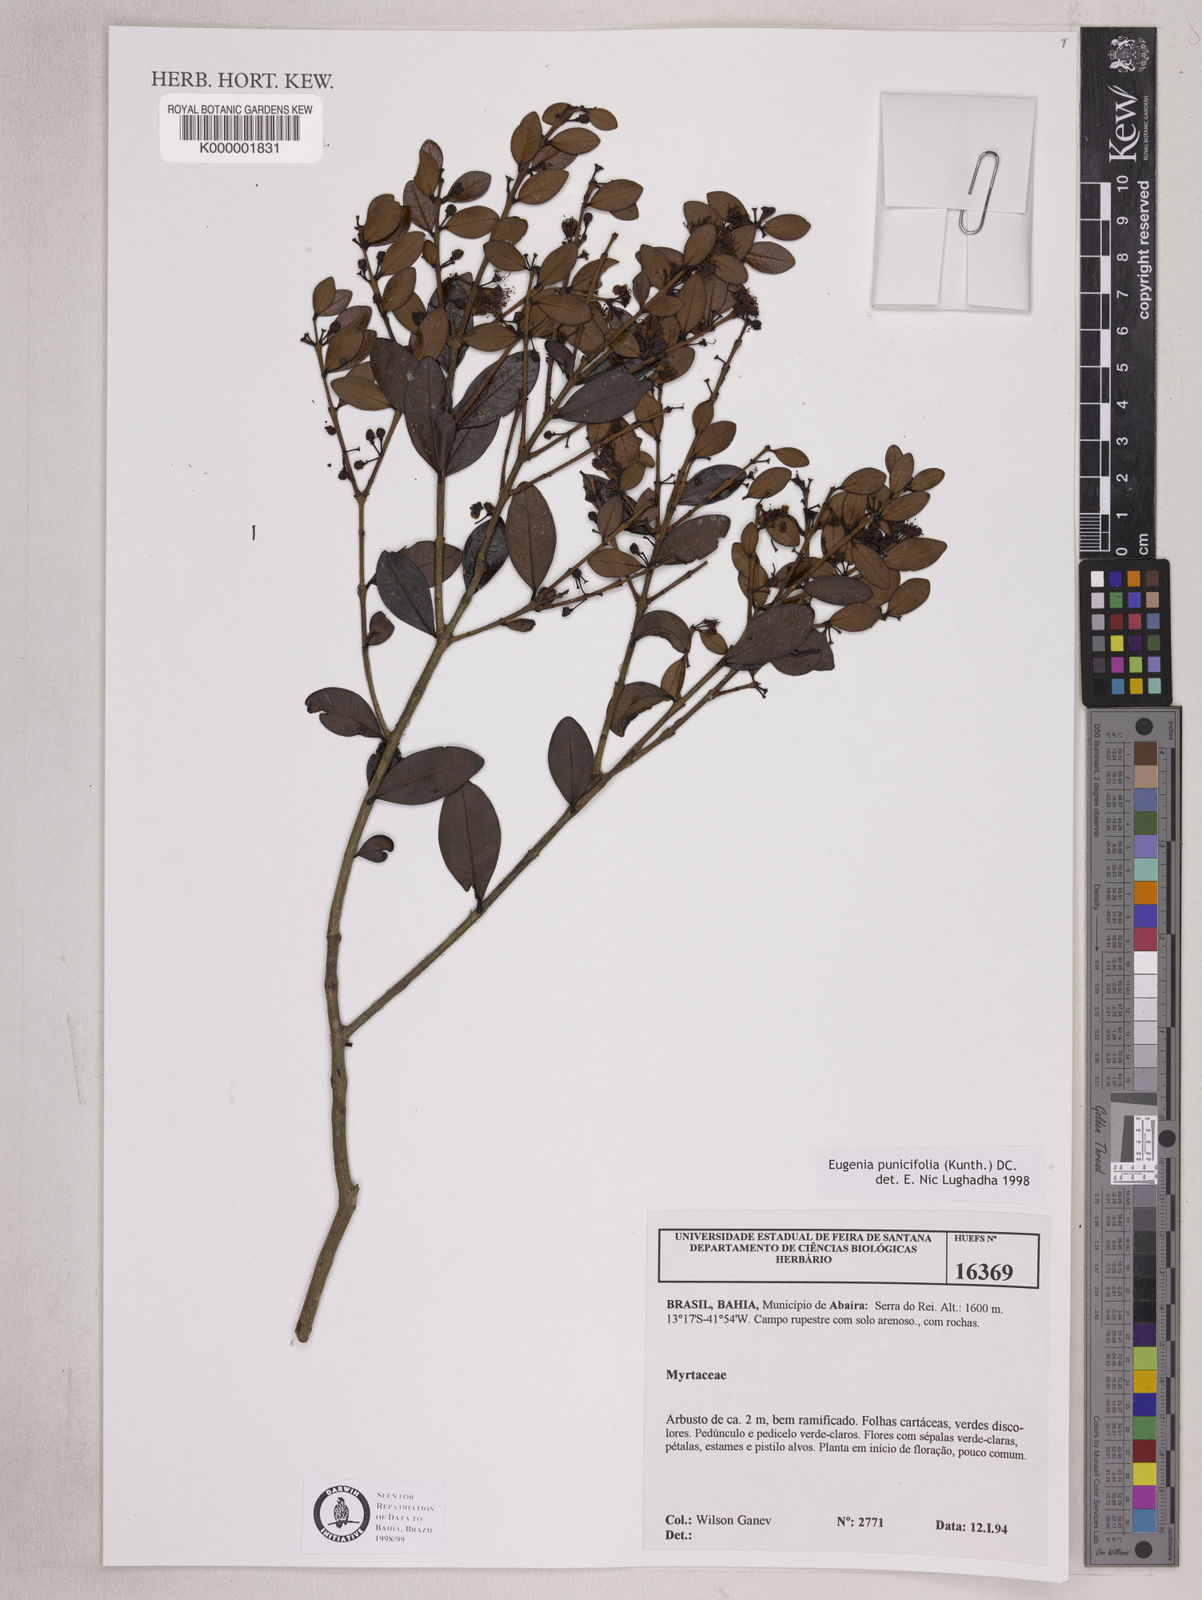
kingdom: Plantae
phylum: Tracheophyta
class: Magnoliopsida
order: Myrtales
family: Myrtaceae
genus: Eugenia
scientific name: Eugenia punicifolia
